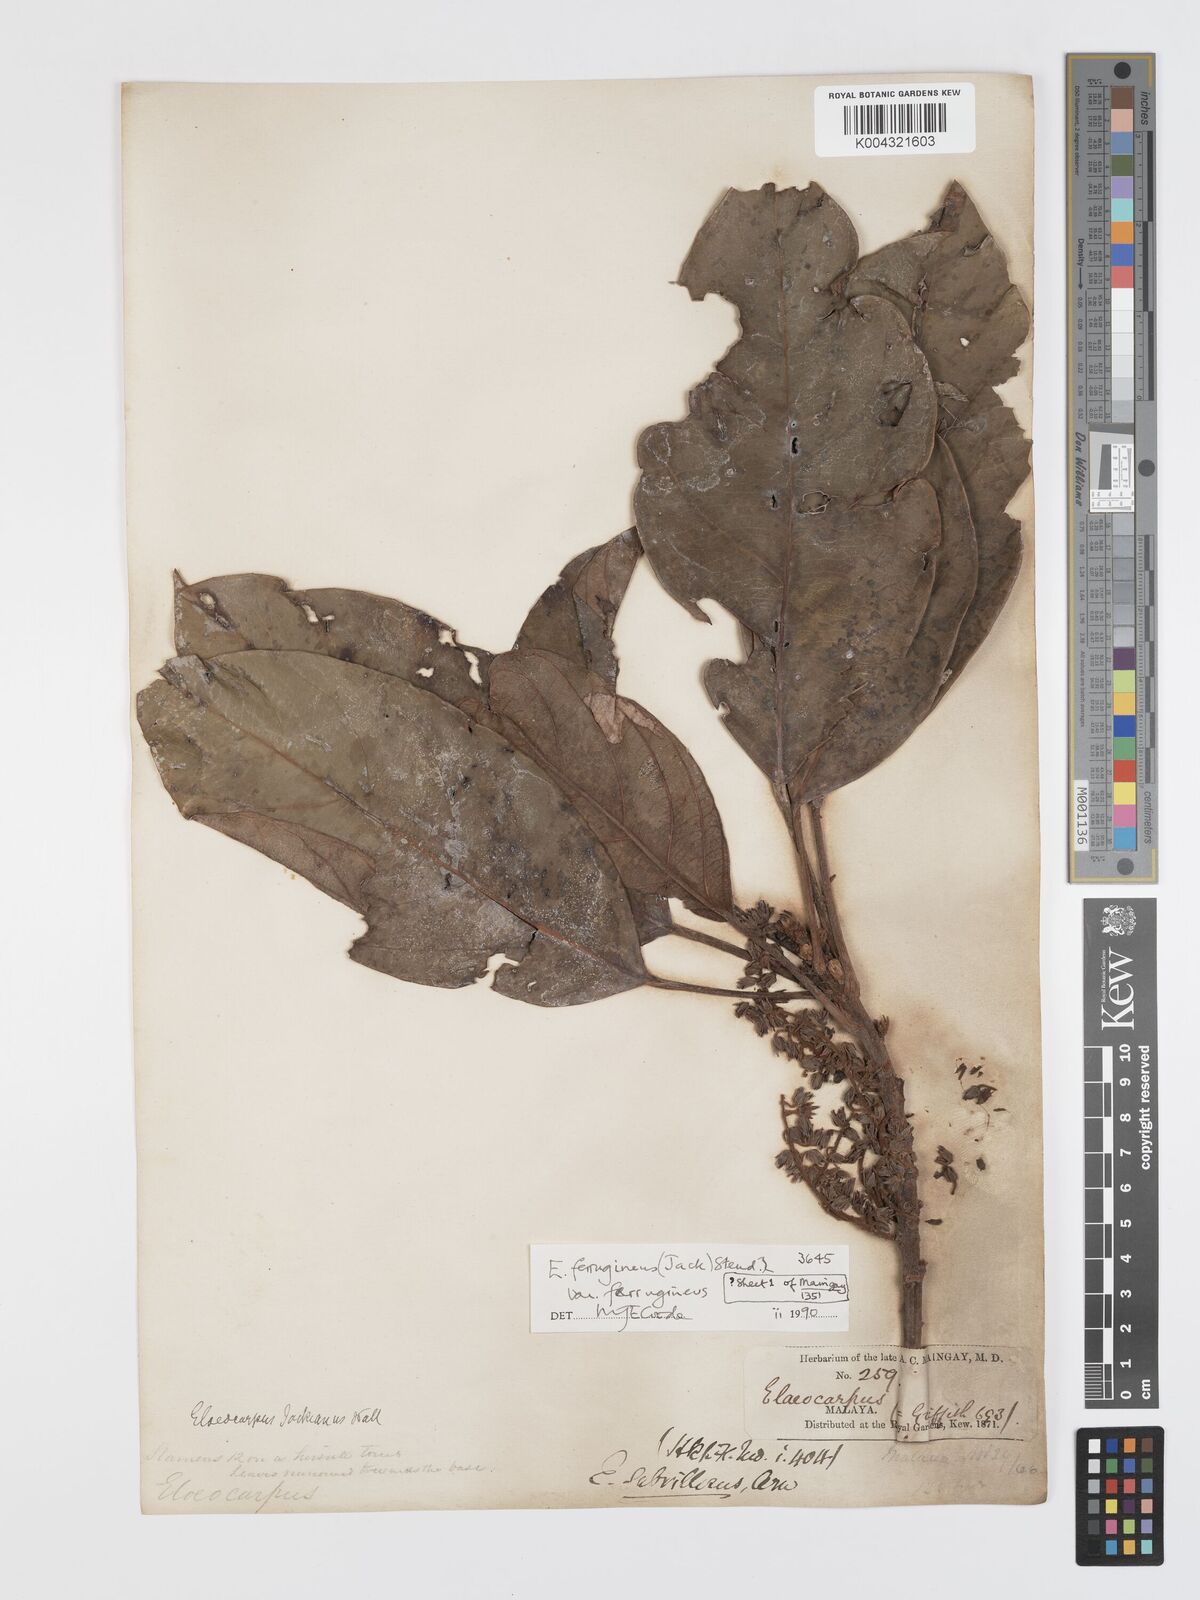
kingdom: Plantae
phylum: Tracheophyta
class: Magnoliopsida
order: Oxalidales
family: Elaeocarpaceae
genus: Elaeocarpus
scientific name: Elaeocarpus ferrugineus
